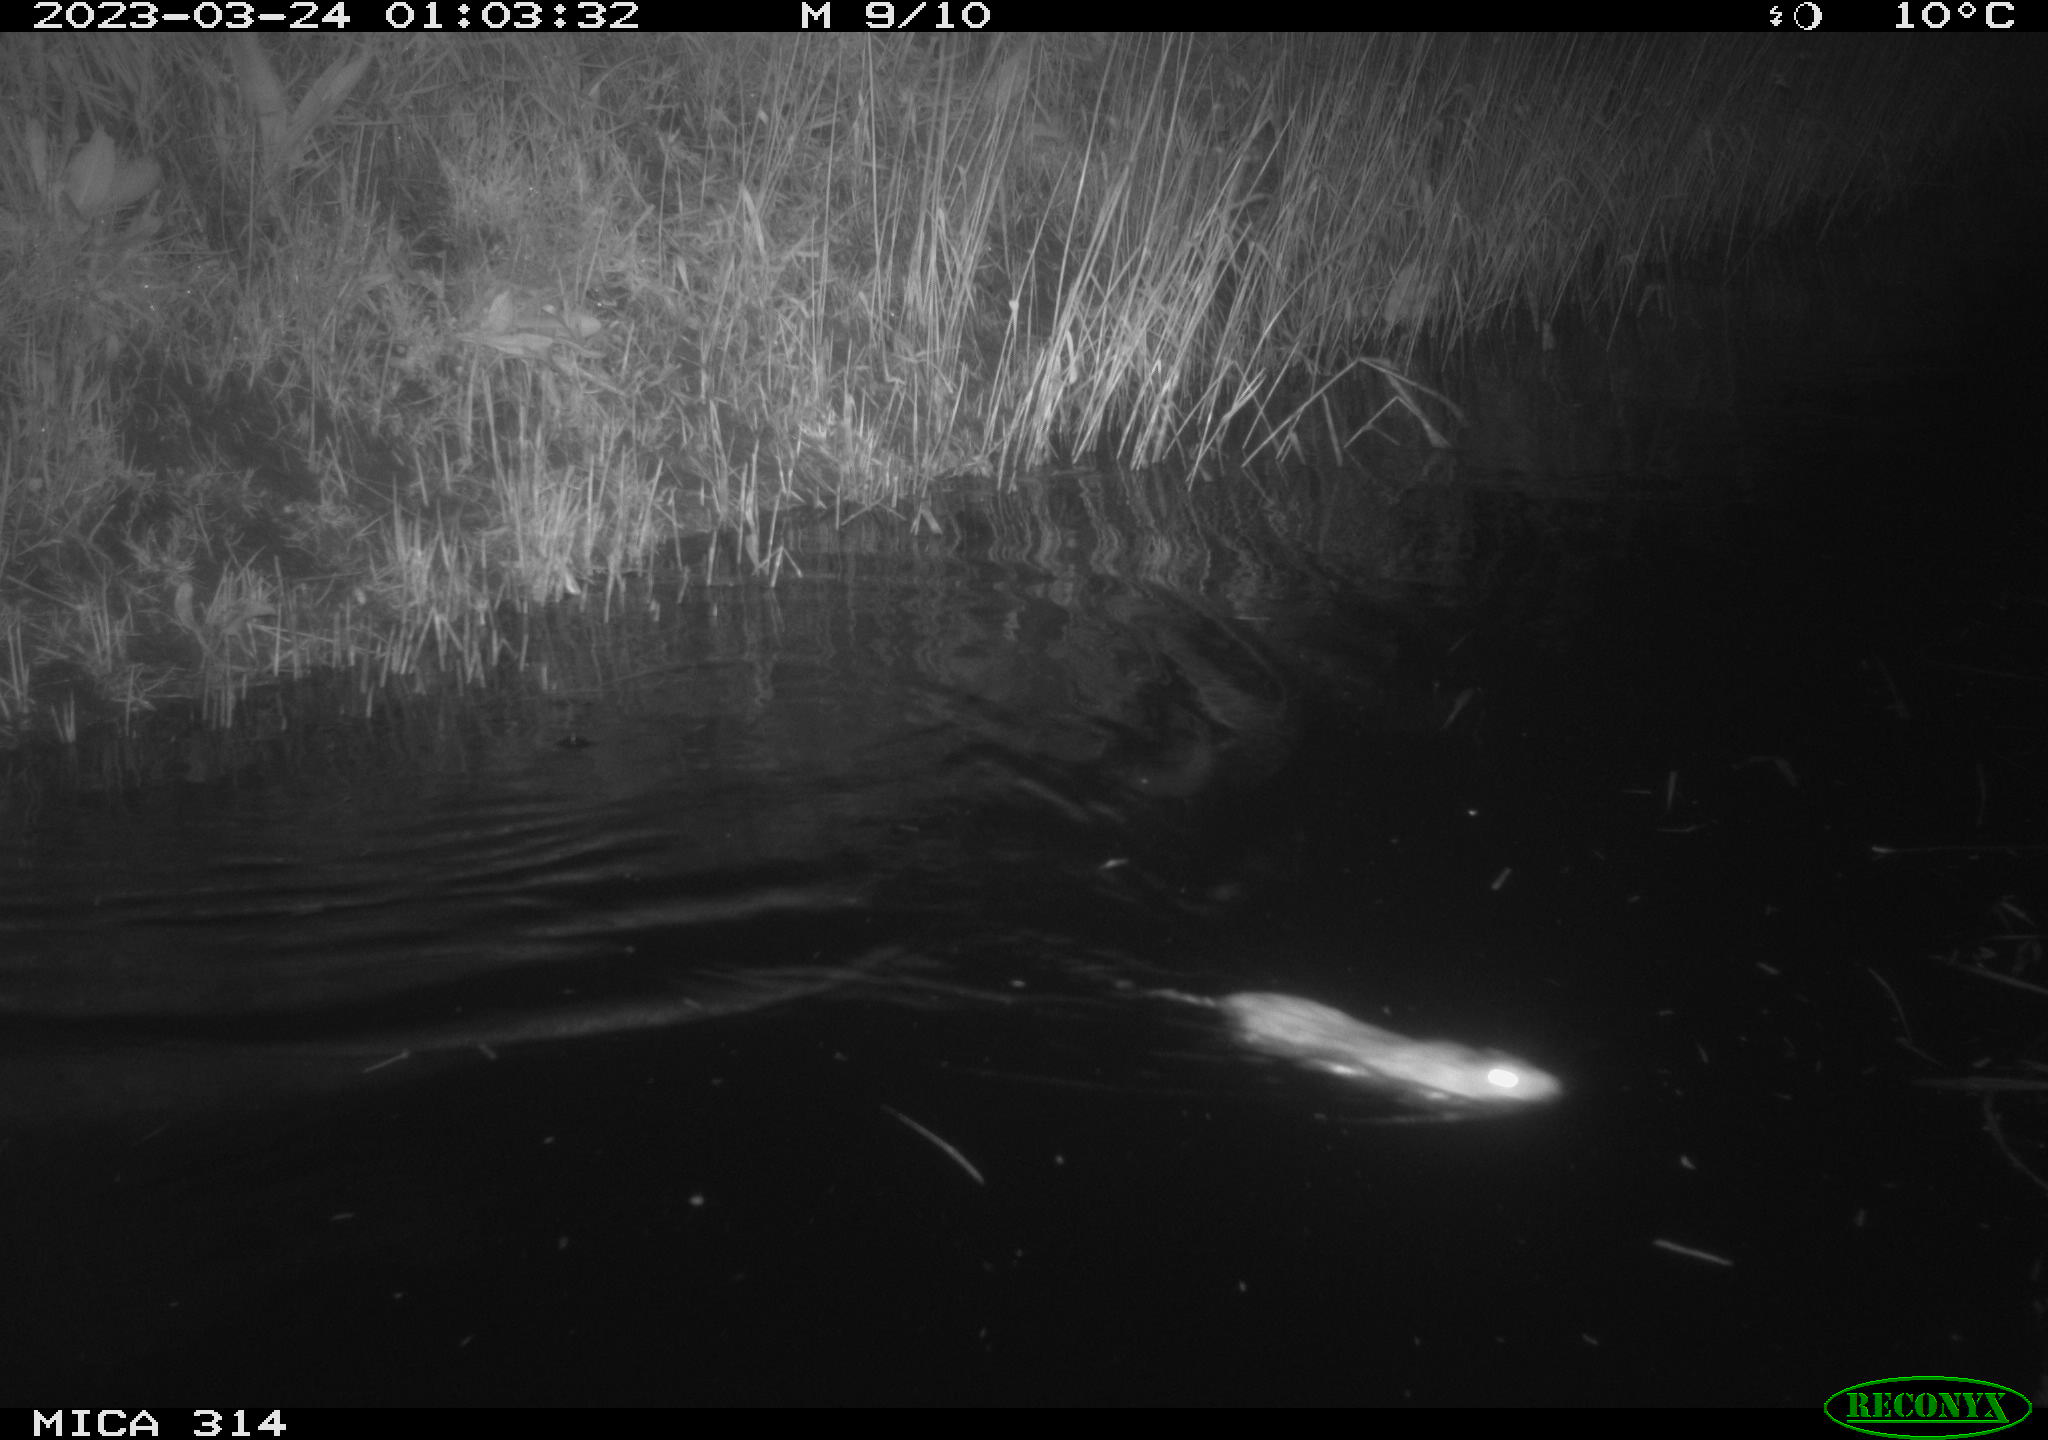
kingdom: Animalia
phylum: Chordata
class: Mammalia
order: Rodentia
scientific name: Rodentia
